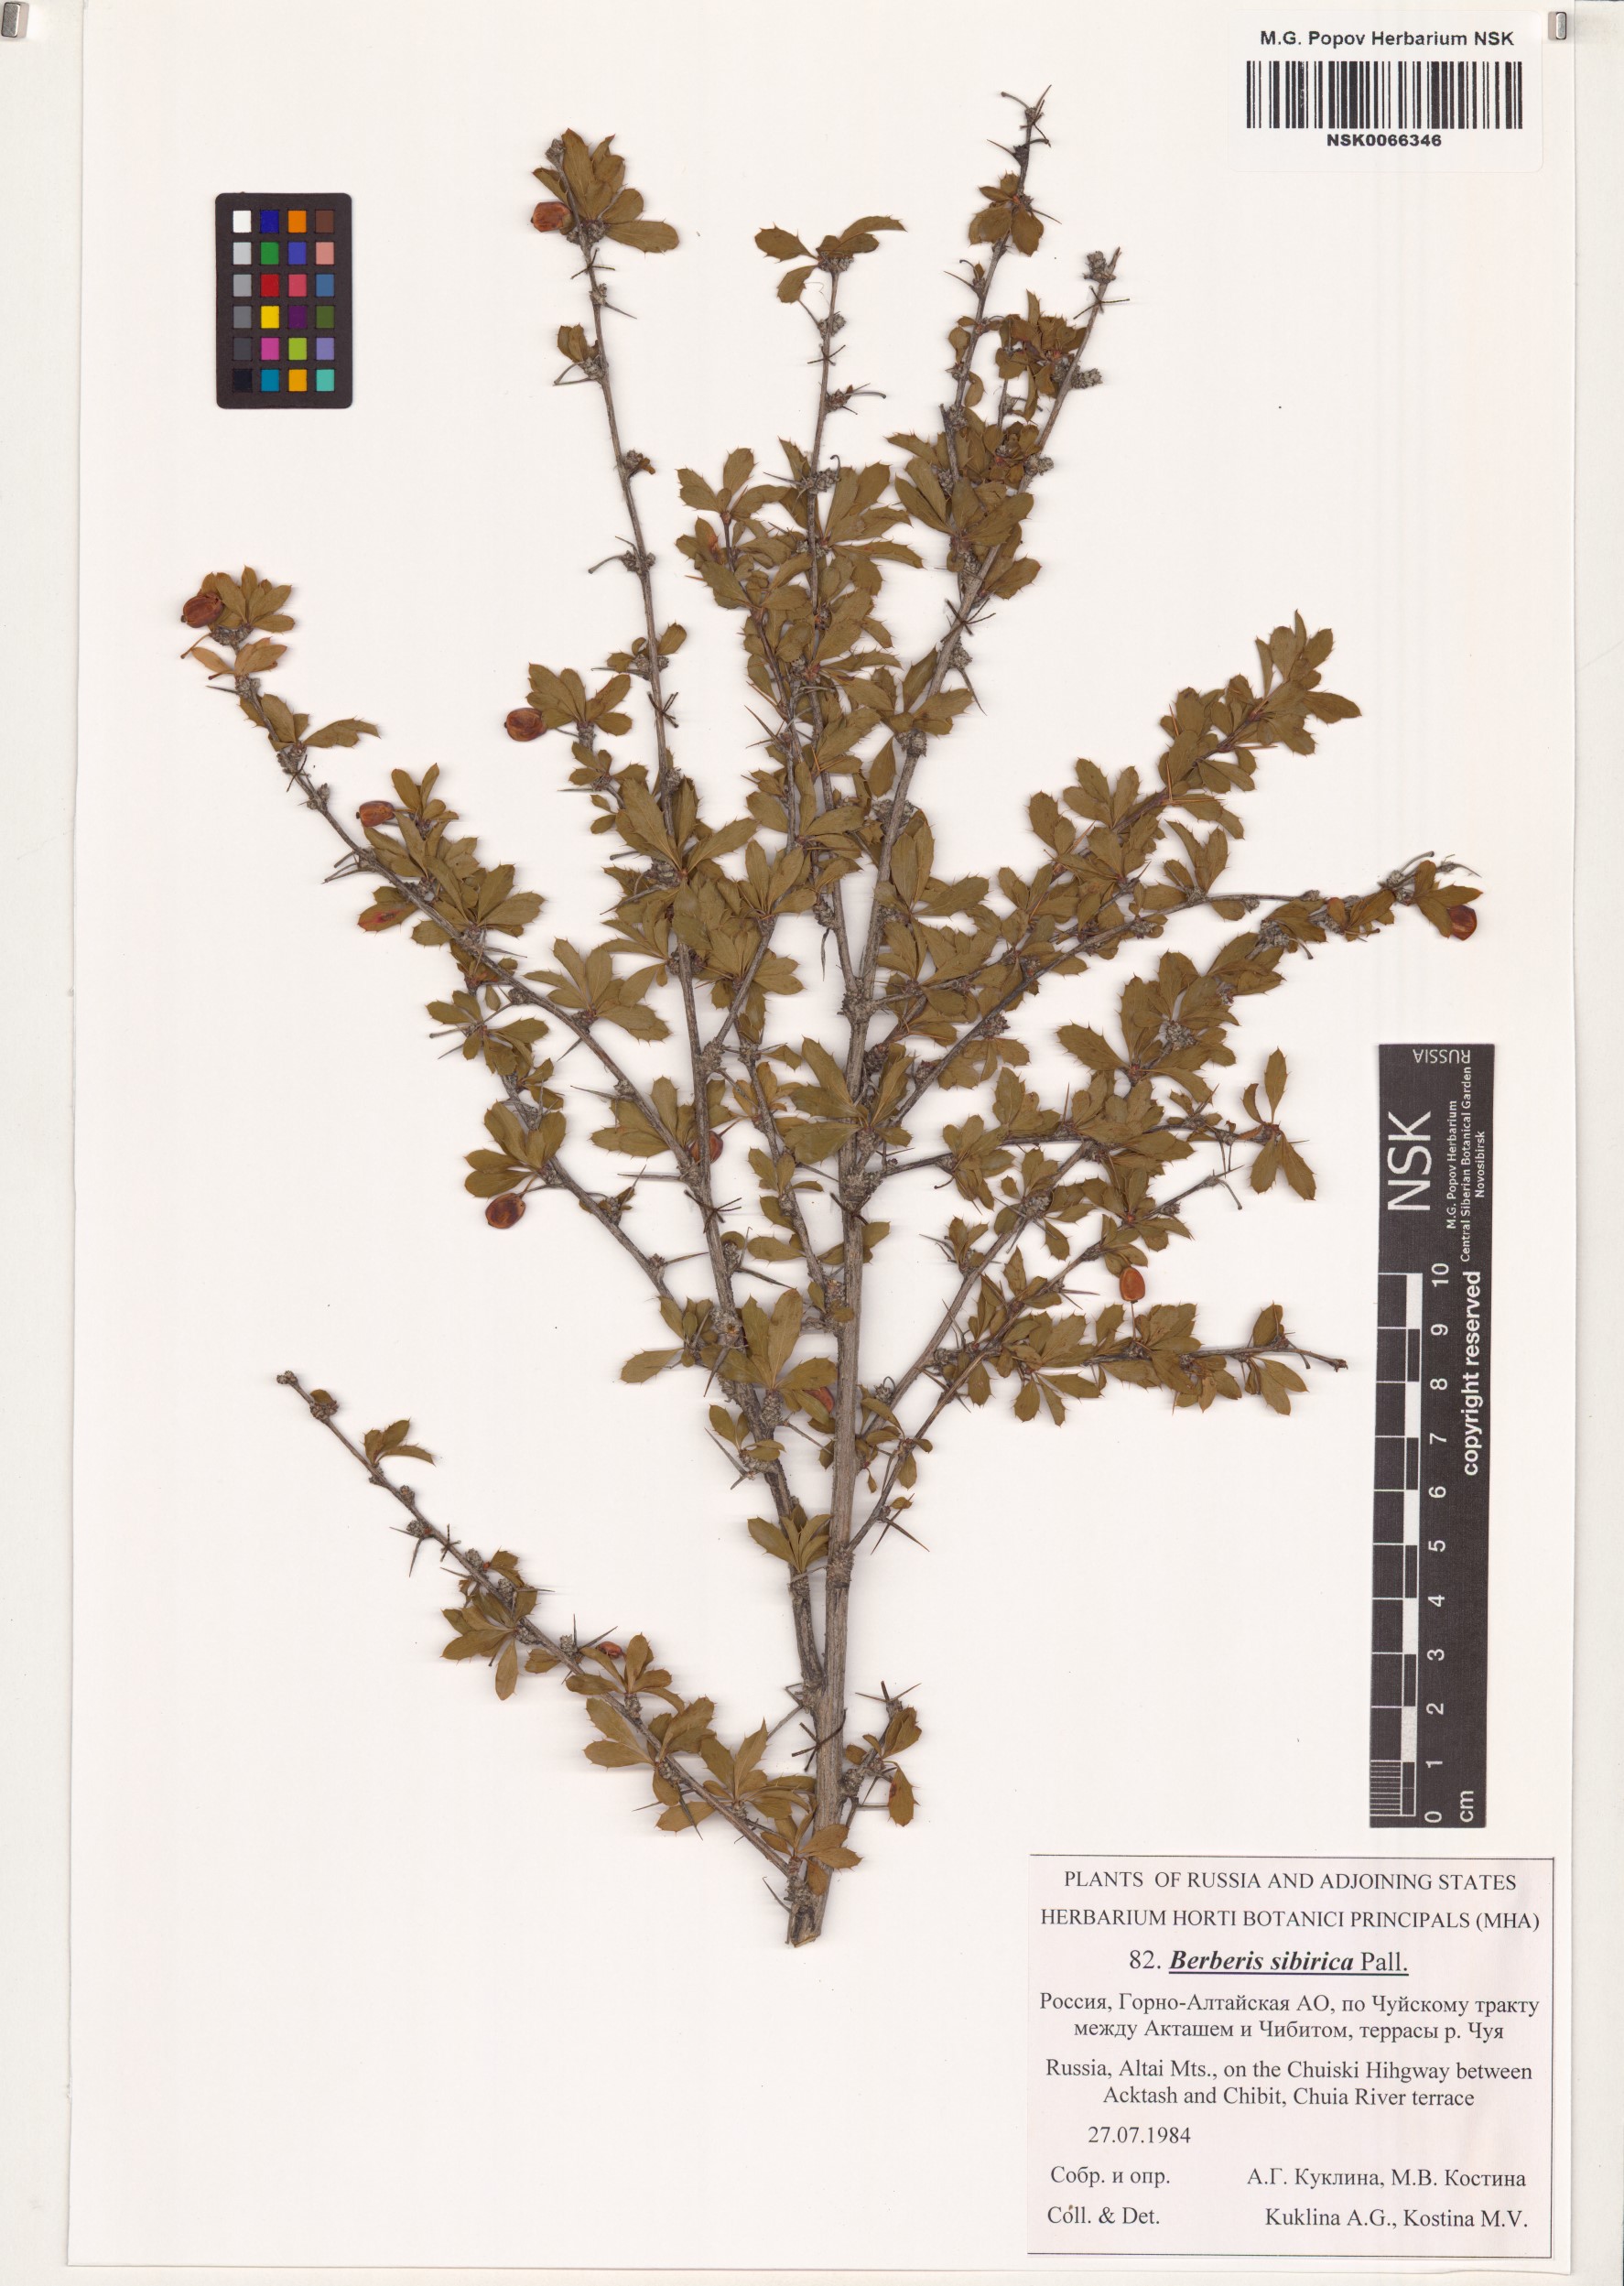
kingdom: Plantae
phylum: Tracheophyta
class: Magnoliopsida
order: Ranunculales
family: Berberidaceae
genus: Berberis
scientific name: Berberis sibirica
